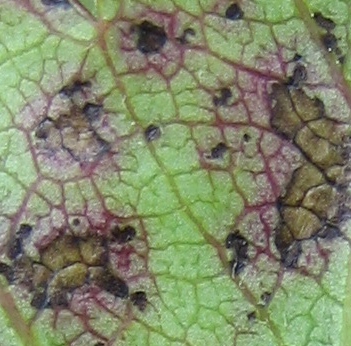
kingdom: Fungi
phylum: Ascomycota
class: Leotiomycetes
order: Helotiales
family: Drepanopezizaceae
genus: Diplocarpon
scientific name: Diplocarpon mespili
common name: Quince leaf blight
